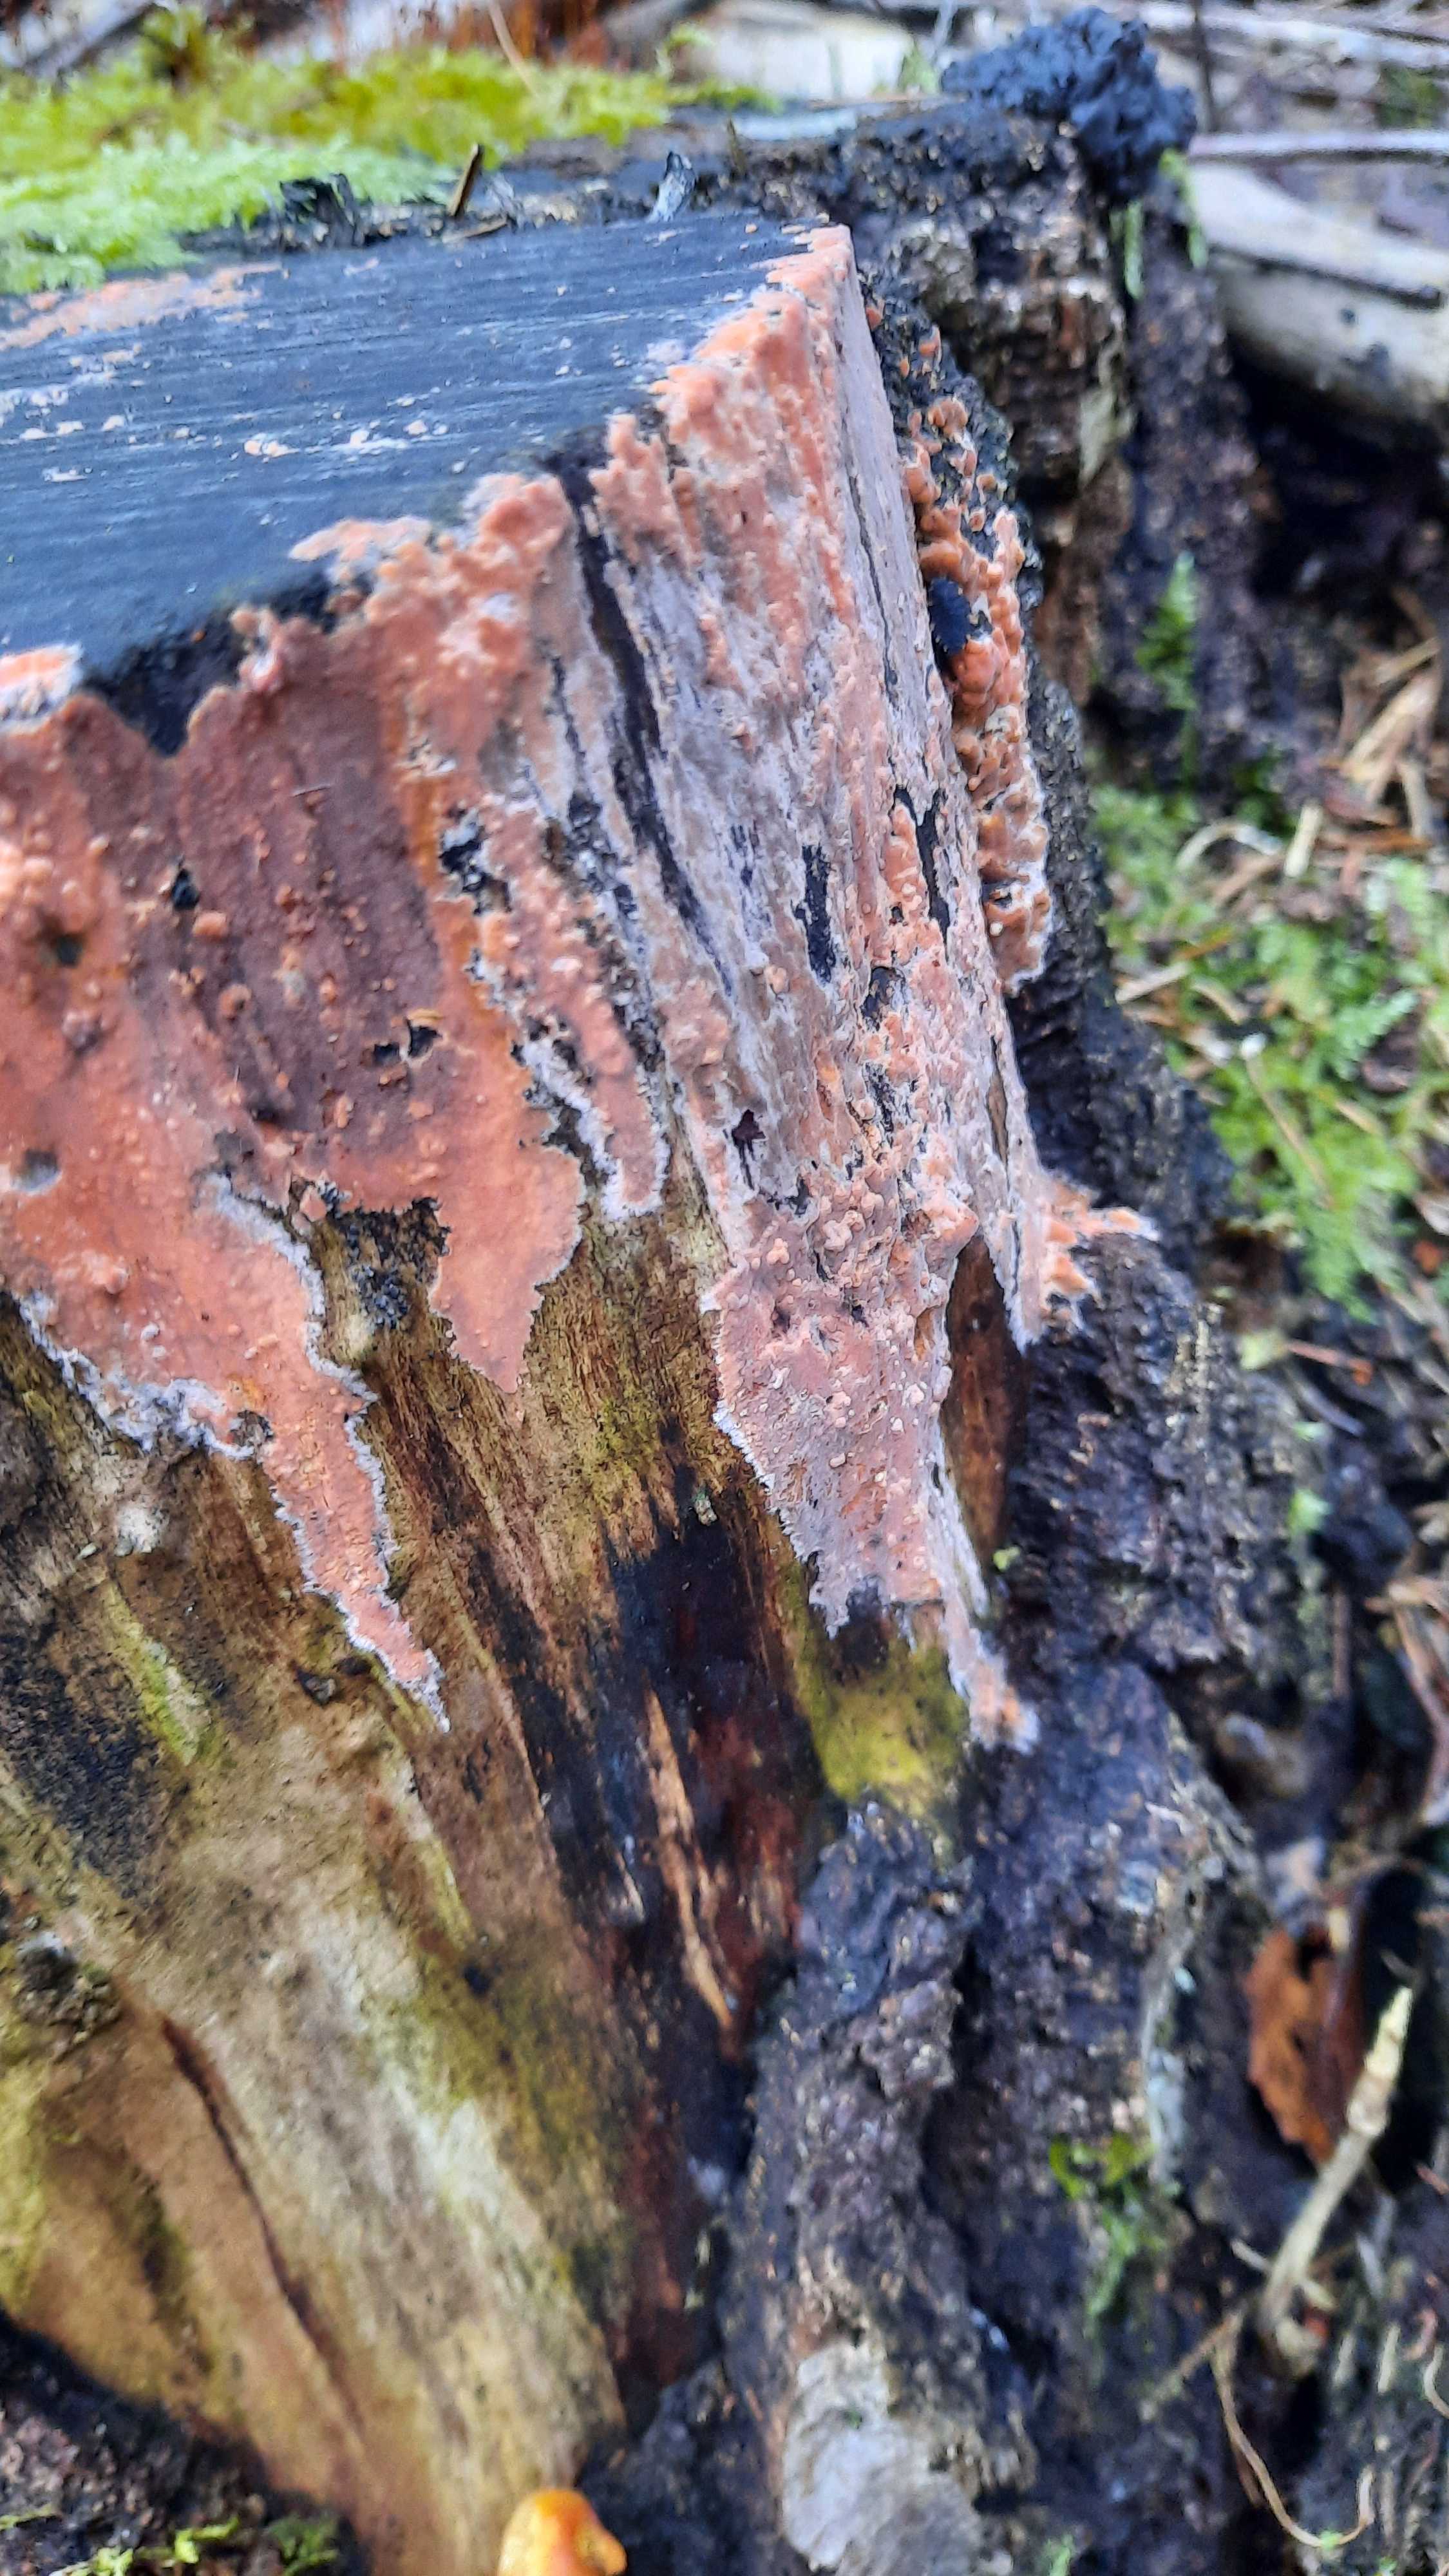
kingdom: Fungi
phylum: Basidiomycota
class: Agaricomycetes
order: Russulales
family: Peniophoraceae
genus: Peniophora
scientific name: Peniophora incarnata
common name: laksefarvet voksskind
